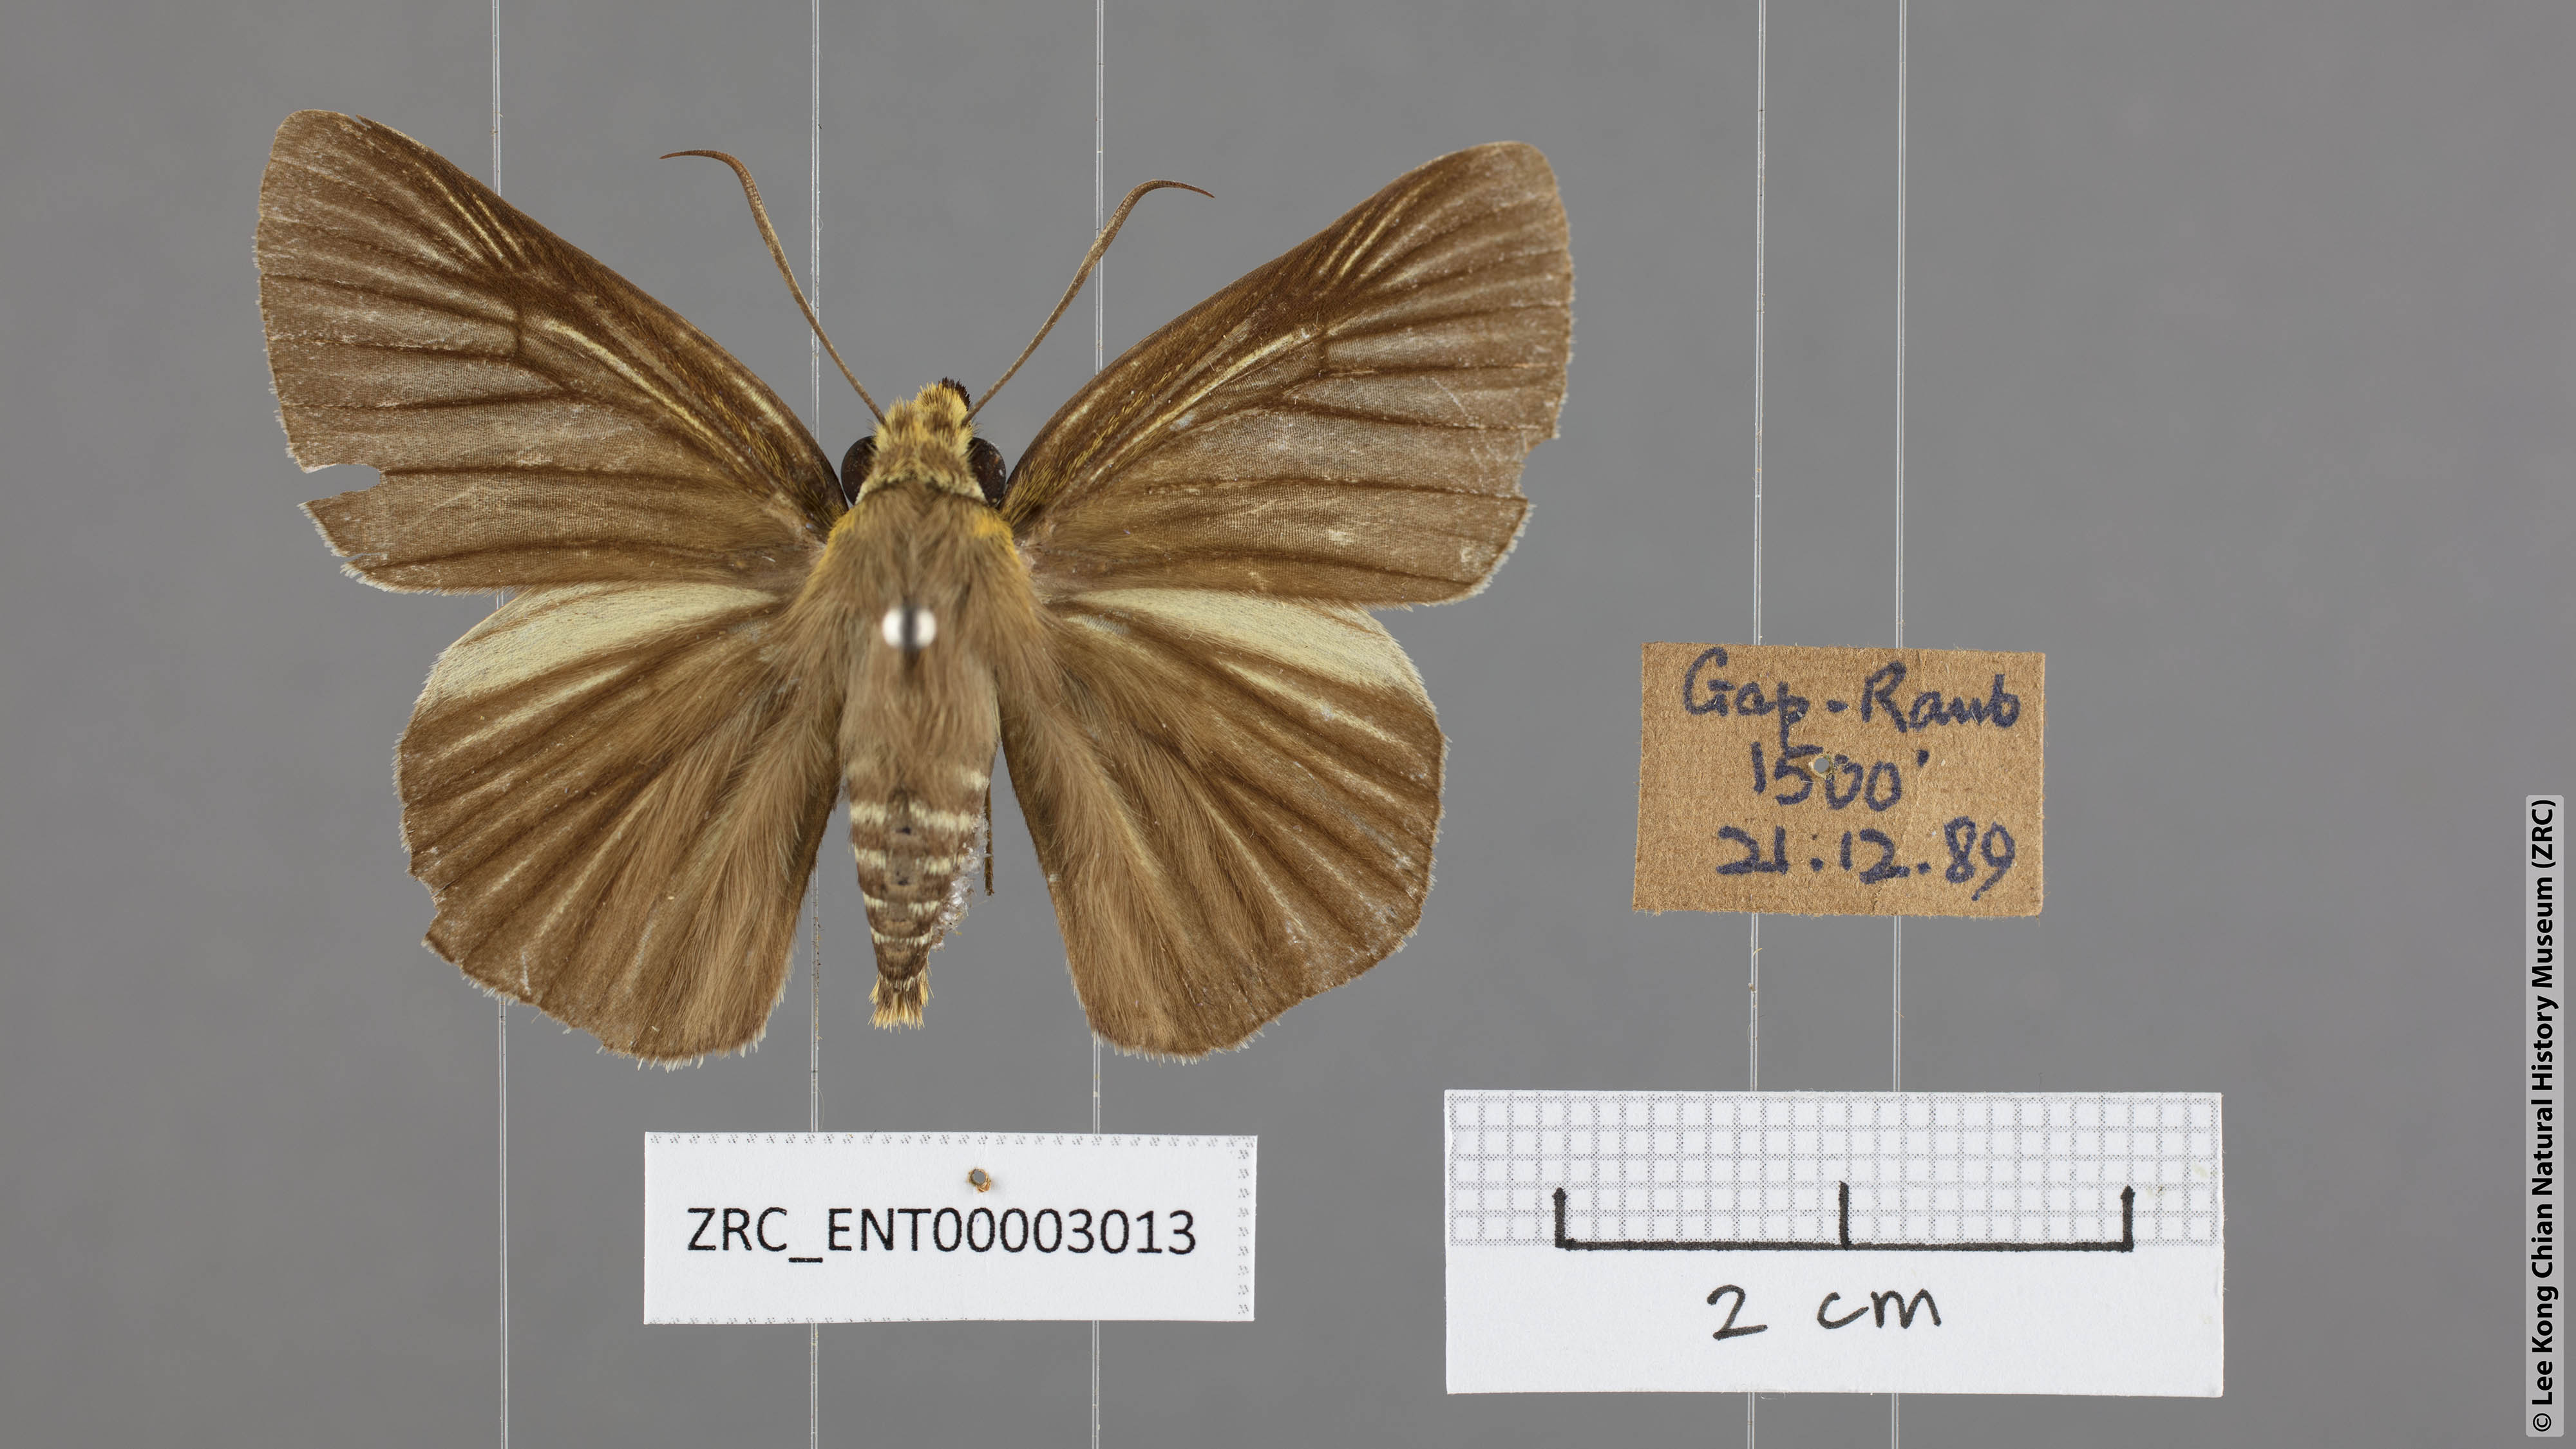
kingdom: Animalia
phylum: Arthropoda
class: Insecta
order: Lepidoptera
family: Hesperiidae
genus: Bibasis
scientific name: Bibasis gomata
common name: Pale green awlet
